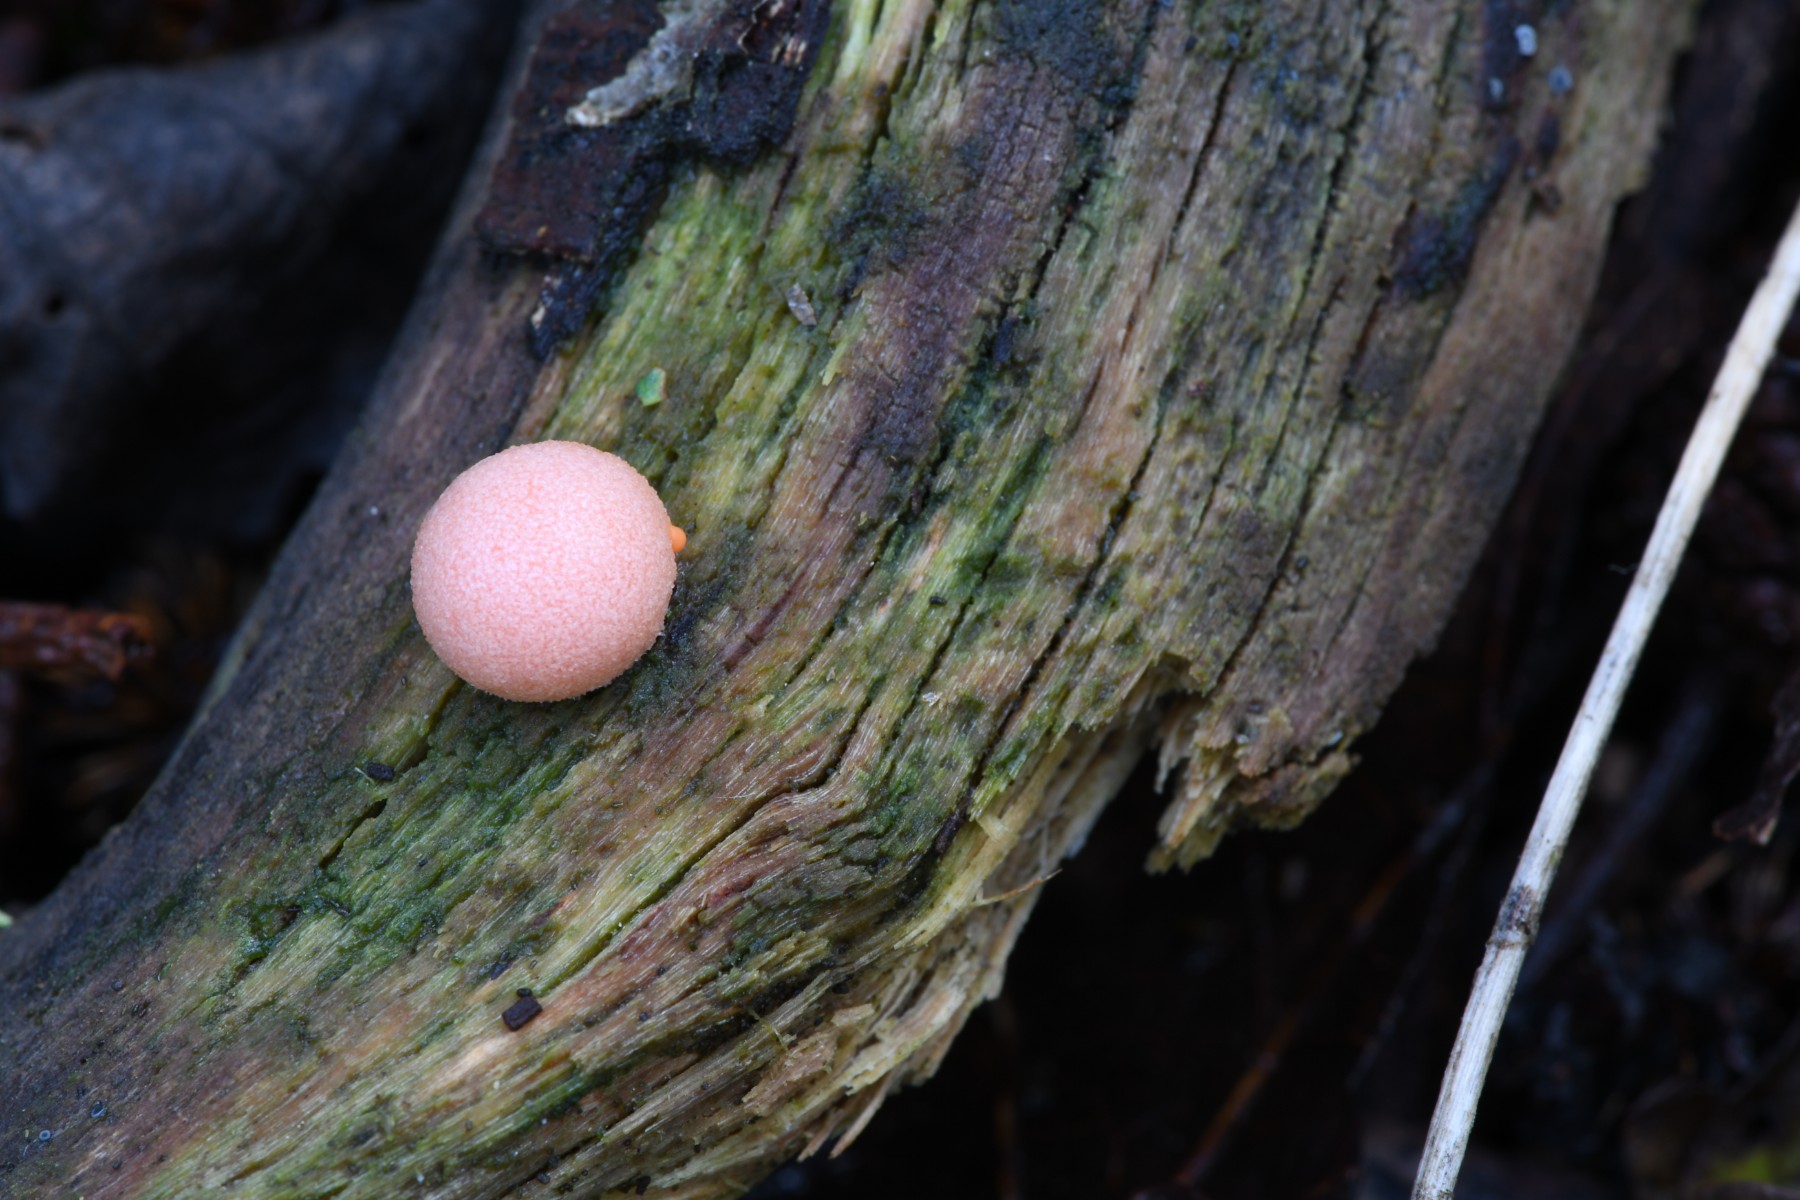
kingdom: Protozoa
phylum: Mycetozoa
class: Myxomycetes
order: Cribrariales
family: Tubiferaceae
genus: Lycogala
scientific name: Lycogala epidendrum
